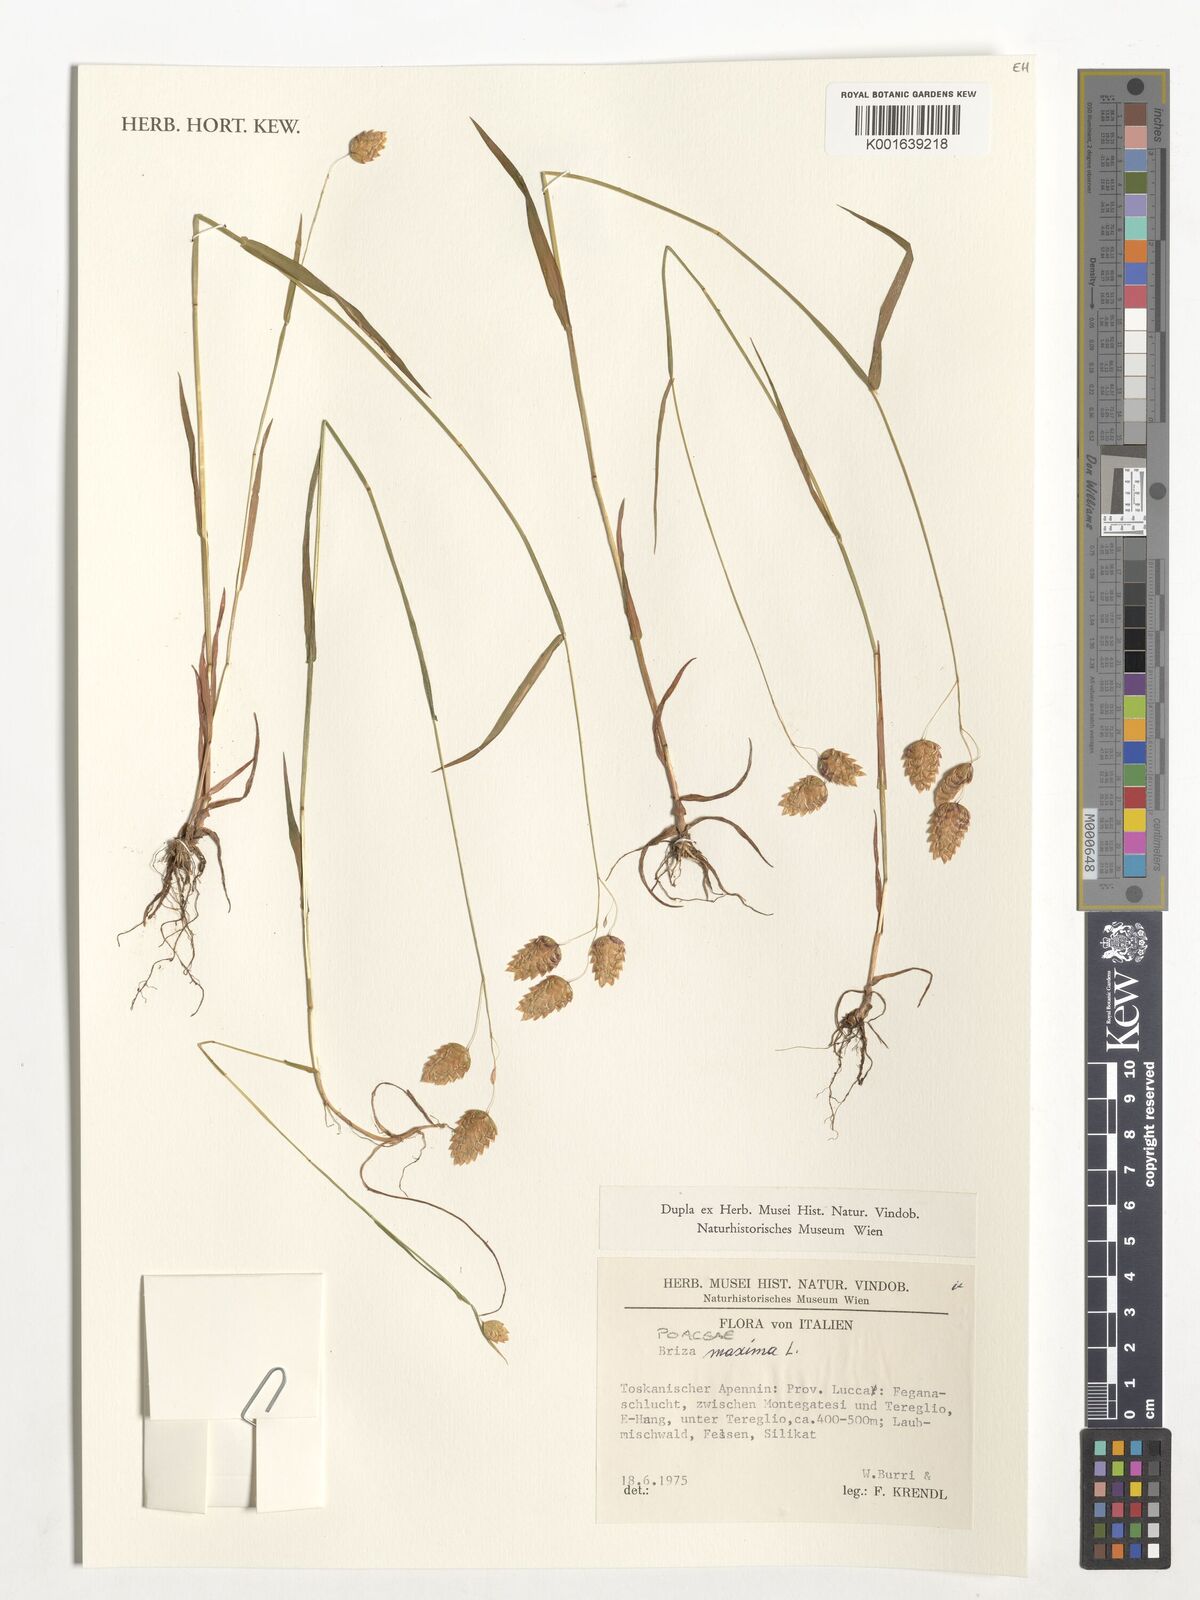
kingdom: Plantae
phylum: Tracheophyta
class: Liliopsida
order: Poales
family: Poaceae
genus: Briza
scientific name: Briza maxima
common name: Big quakinggrass
